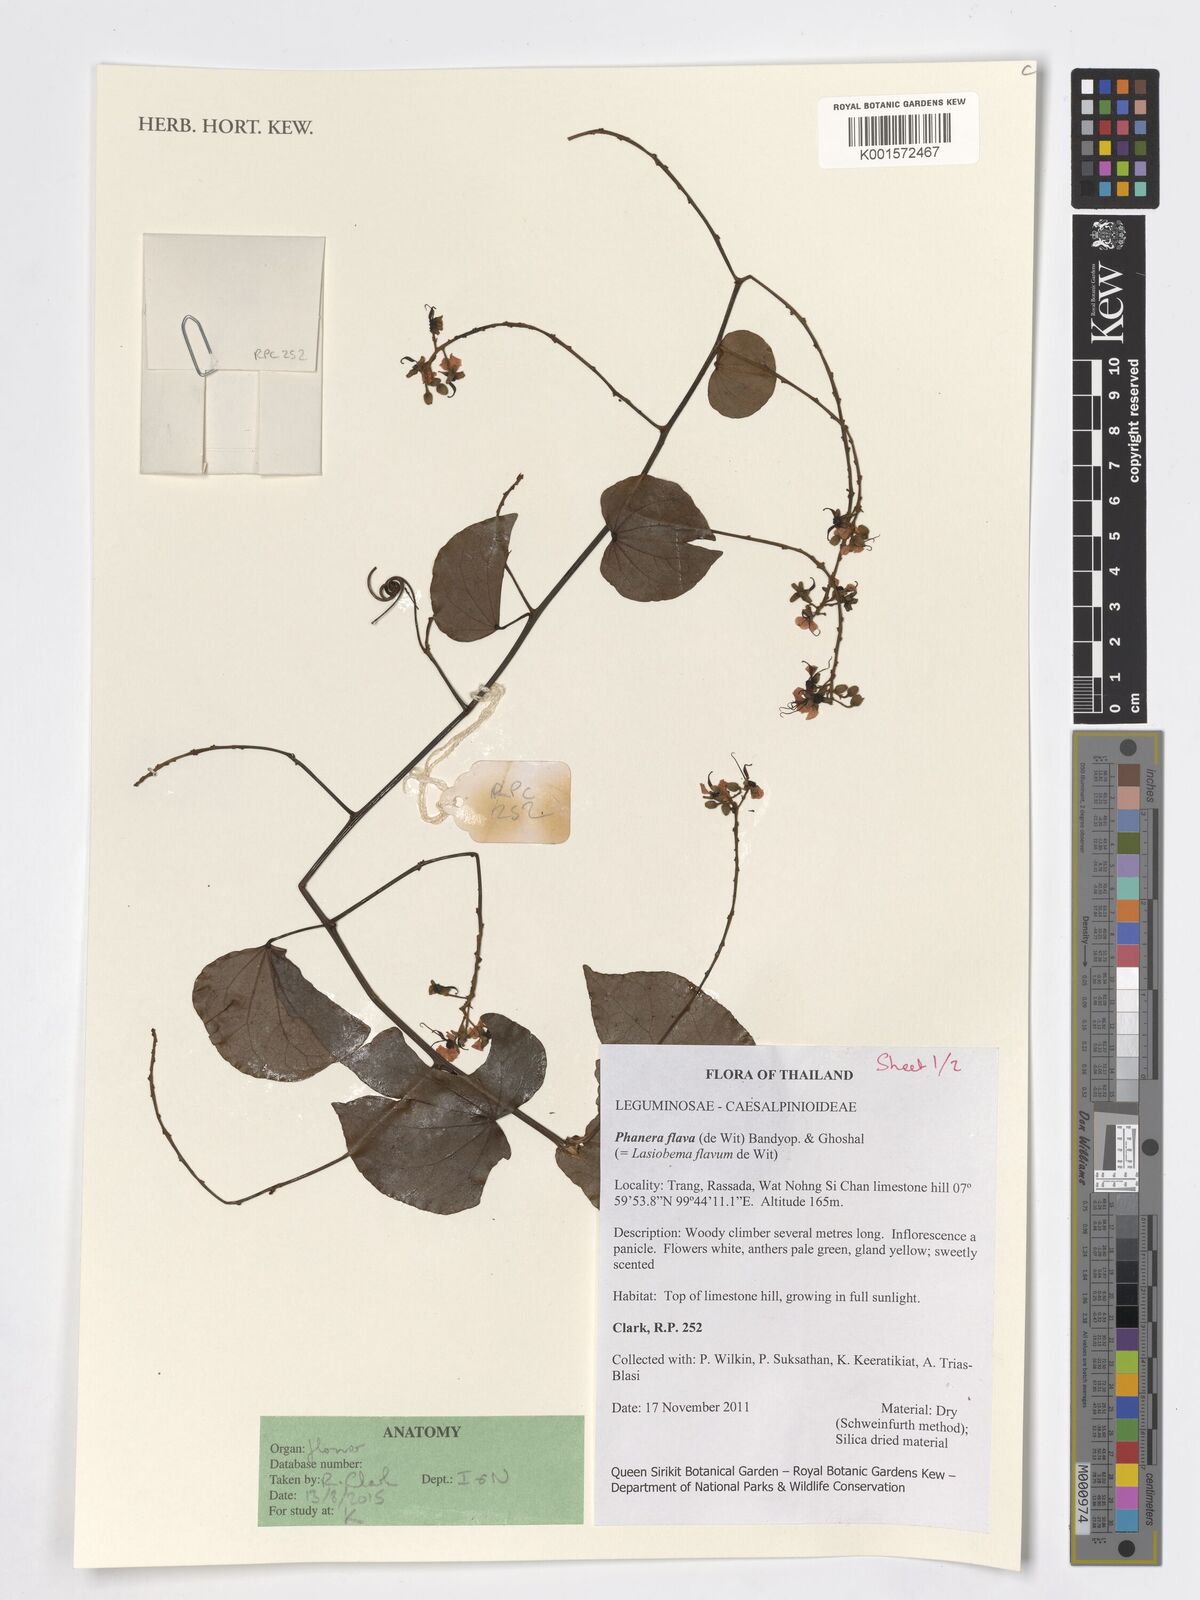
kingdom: Plantae
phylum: Tracheophyta
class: Magnoliopsida
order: Fabales
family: Fabaceae
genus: Phanera
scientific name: Phanera flava
